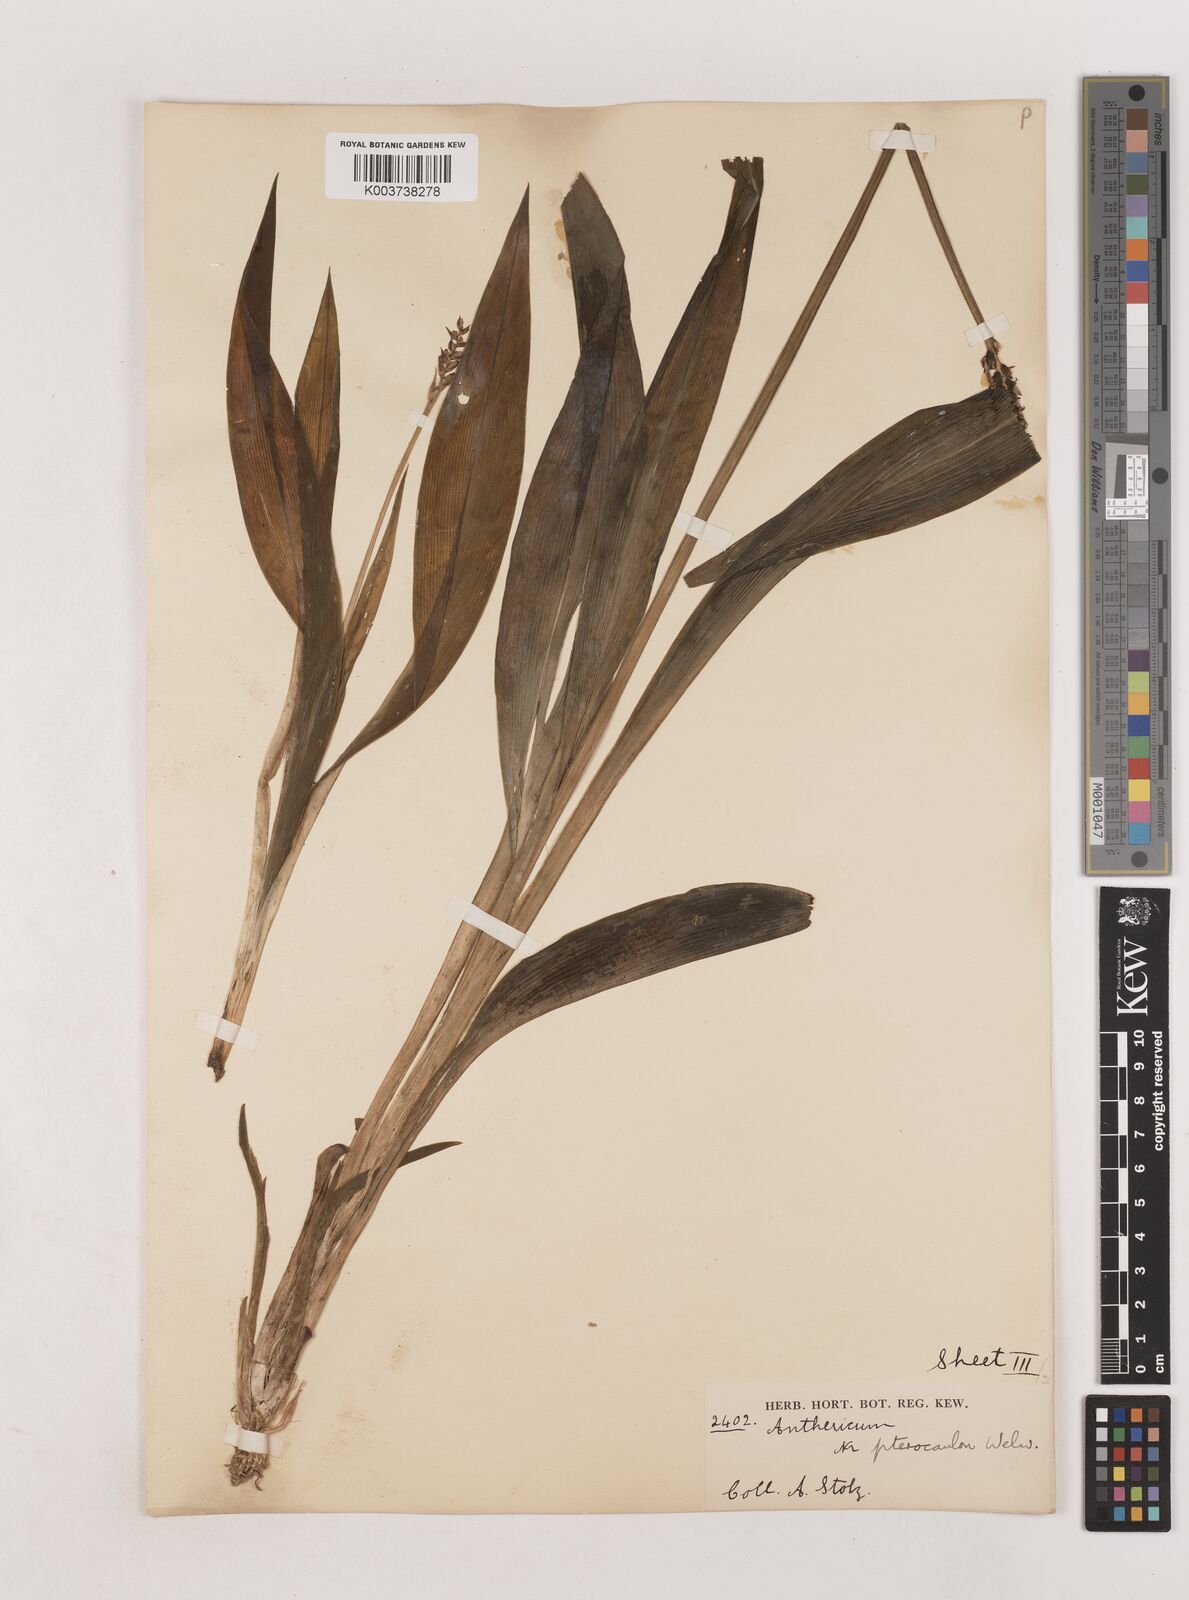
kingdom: Plantae
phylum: Tracheophyta
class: Liliopsida
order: Asparagales
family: Asparagaceae
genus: Chlorophytum
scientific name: Chlorophytum sphacelatum
